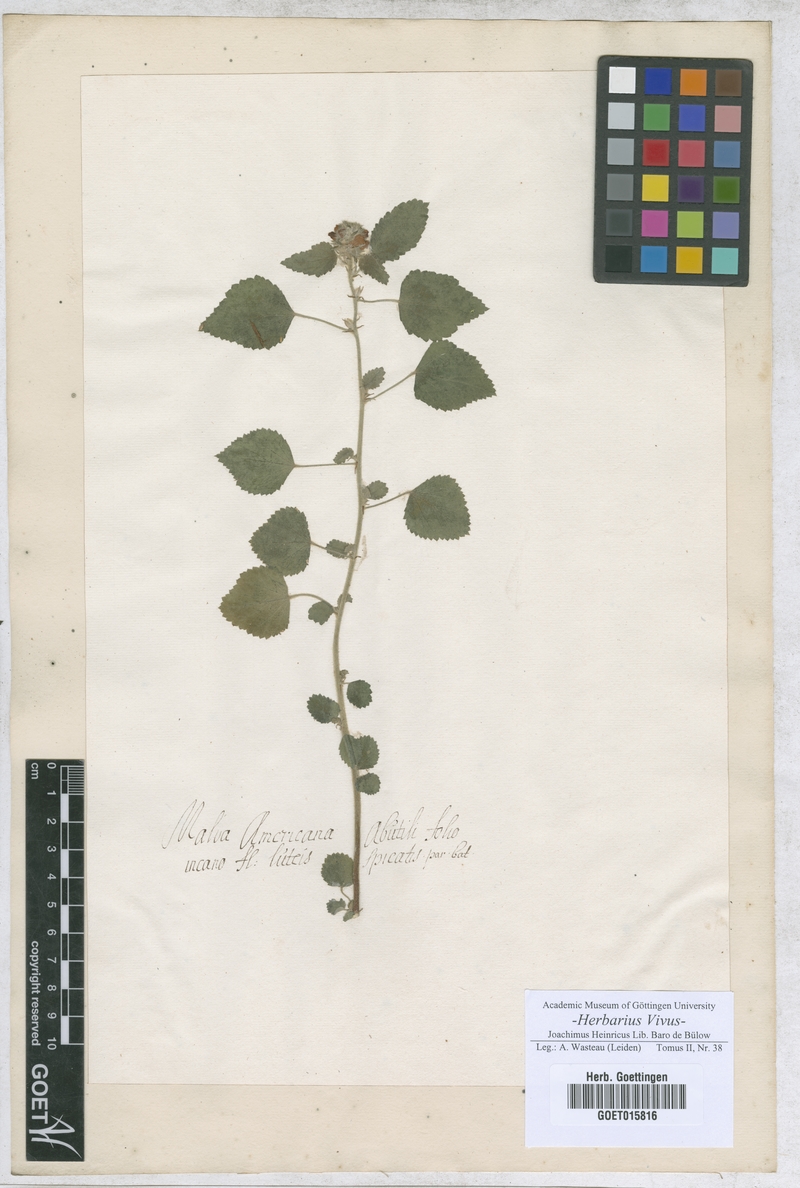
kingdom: Plantae
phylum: Tracheophyta
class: Magnoliopsida
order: Malvales
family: Malvaceae
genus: Malva
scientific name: Malva
